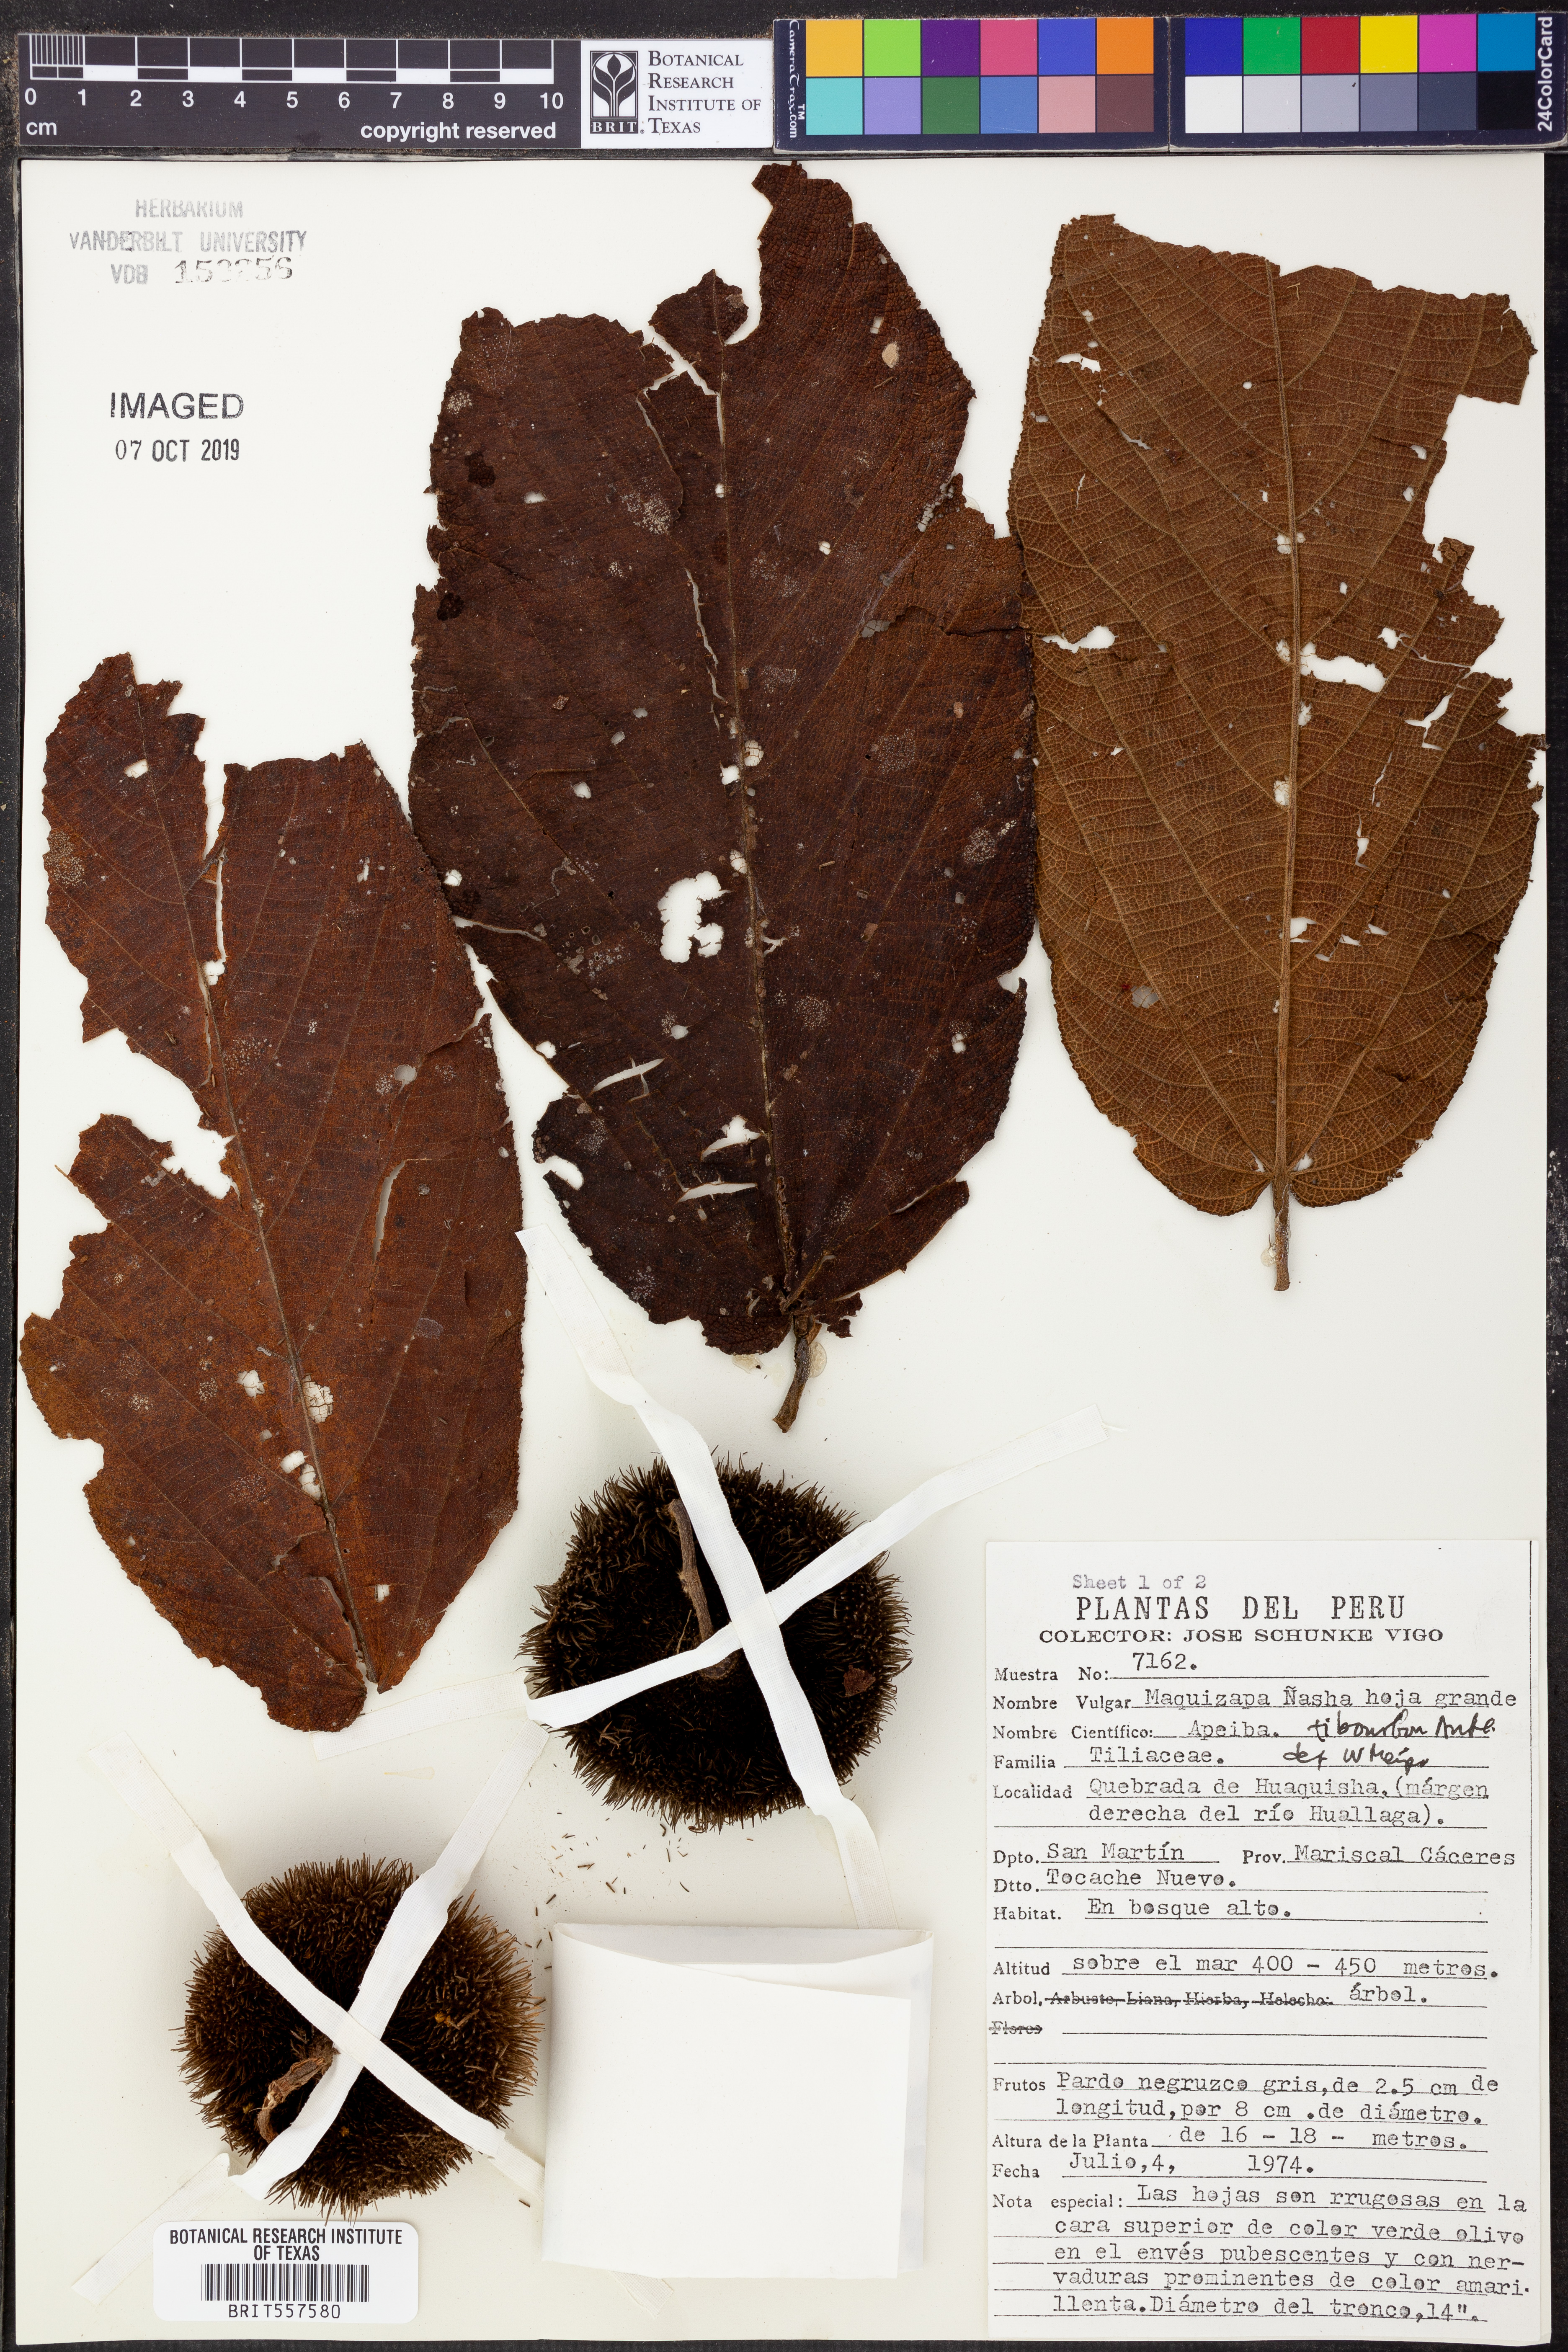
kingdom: Plantae
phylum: Tracheophyta
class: Magnoliopsida
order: Malvales
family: Malvaceae
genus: Apeiba
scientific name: Apeiba tibourbou
